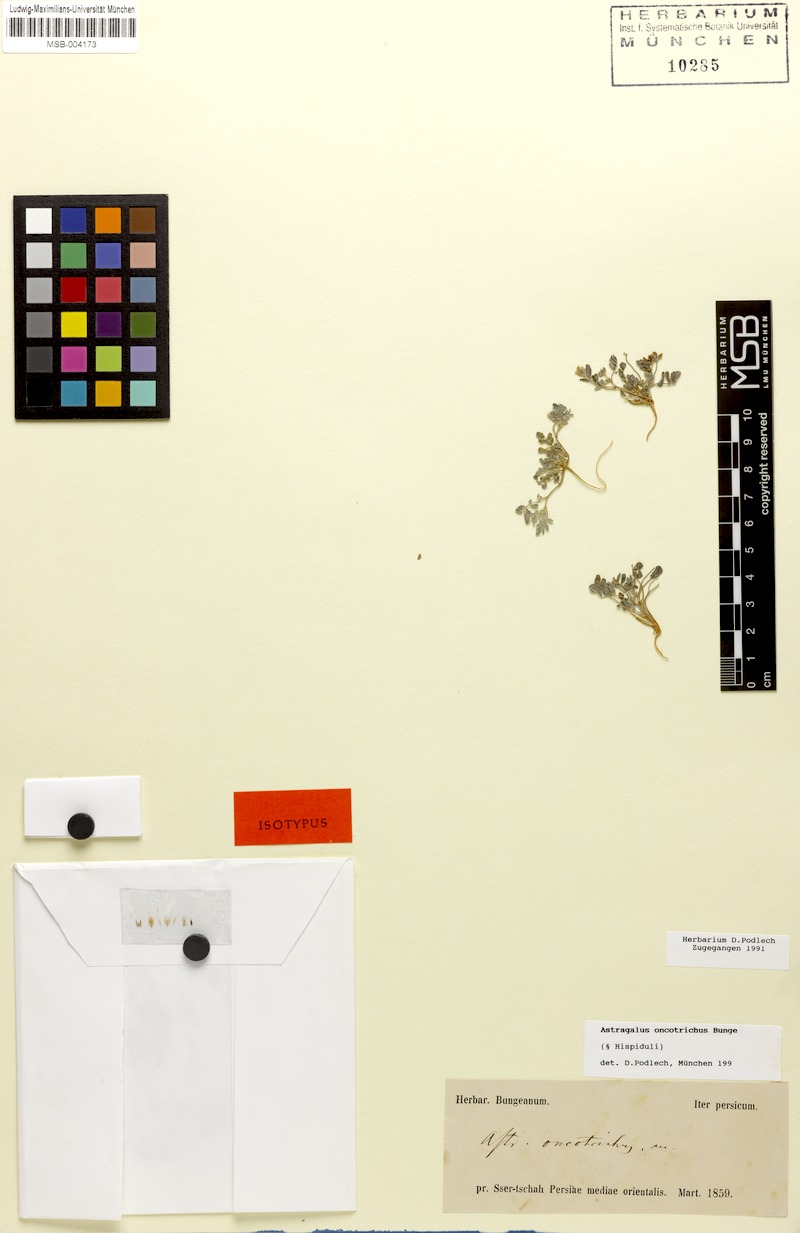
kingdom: Plantae
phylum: Tracheophyta
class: Magnoliopsida
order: Fabales
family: Fabaceae
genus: Astragalus
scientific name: Astragalus oncotrichus
